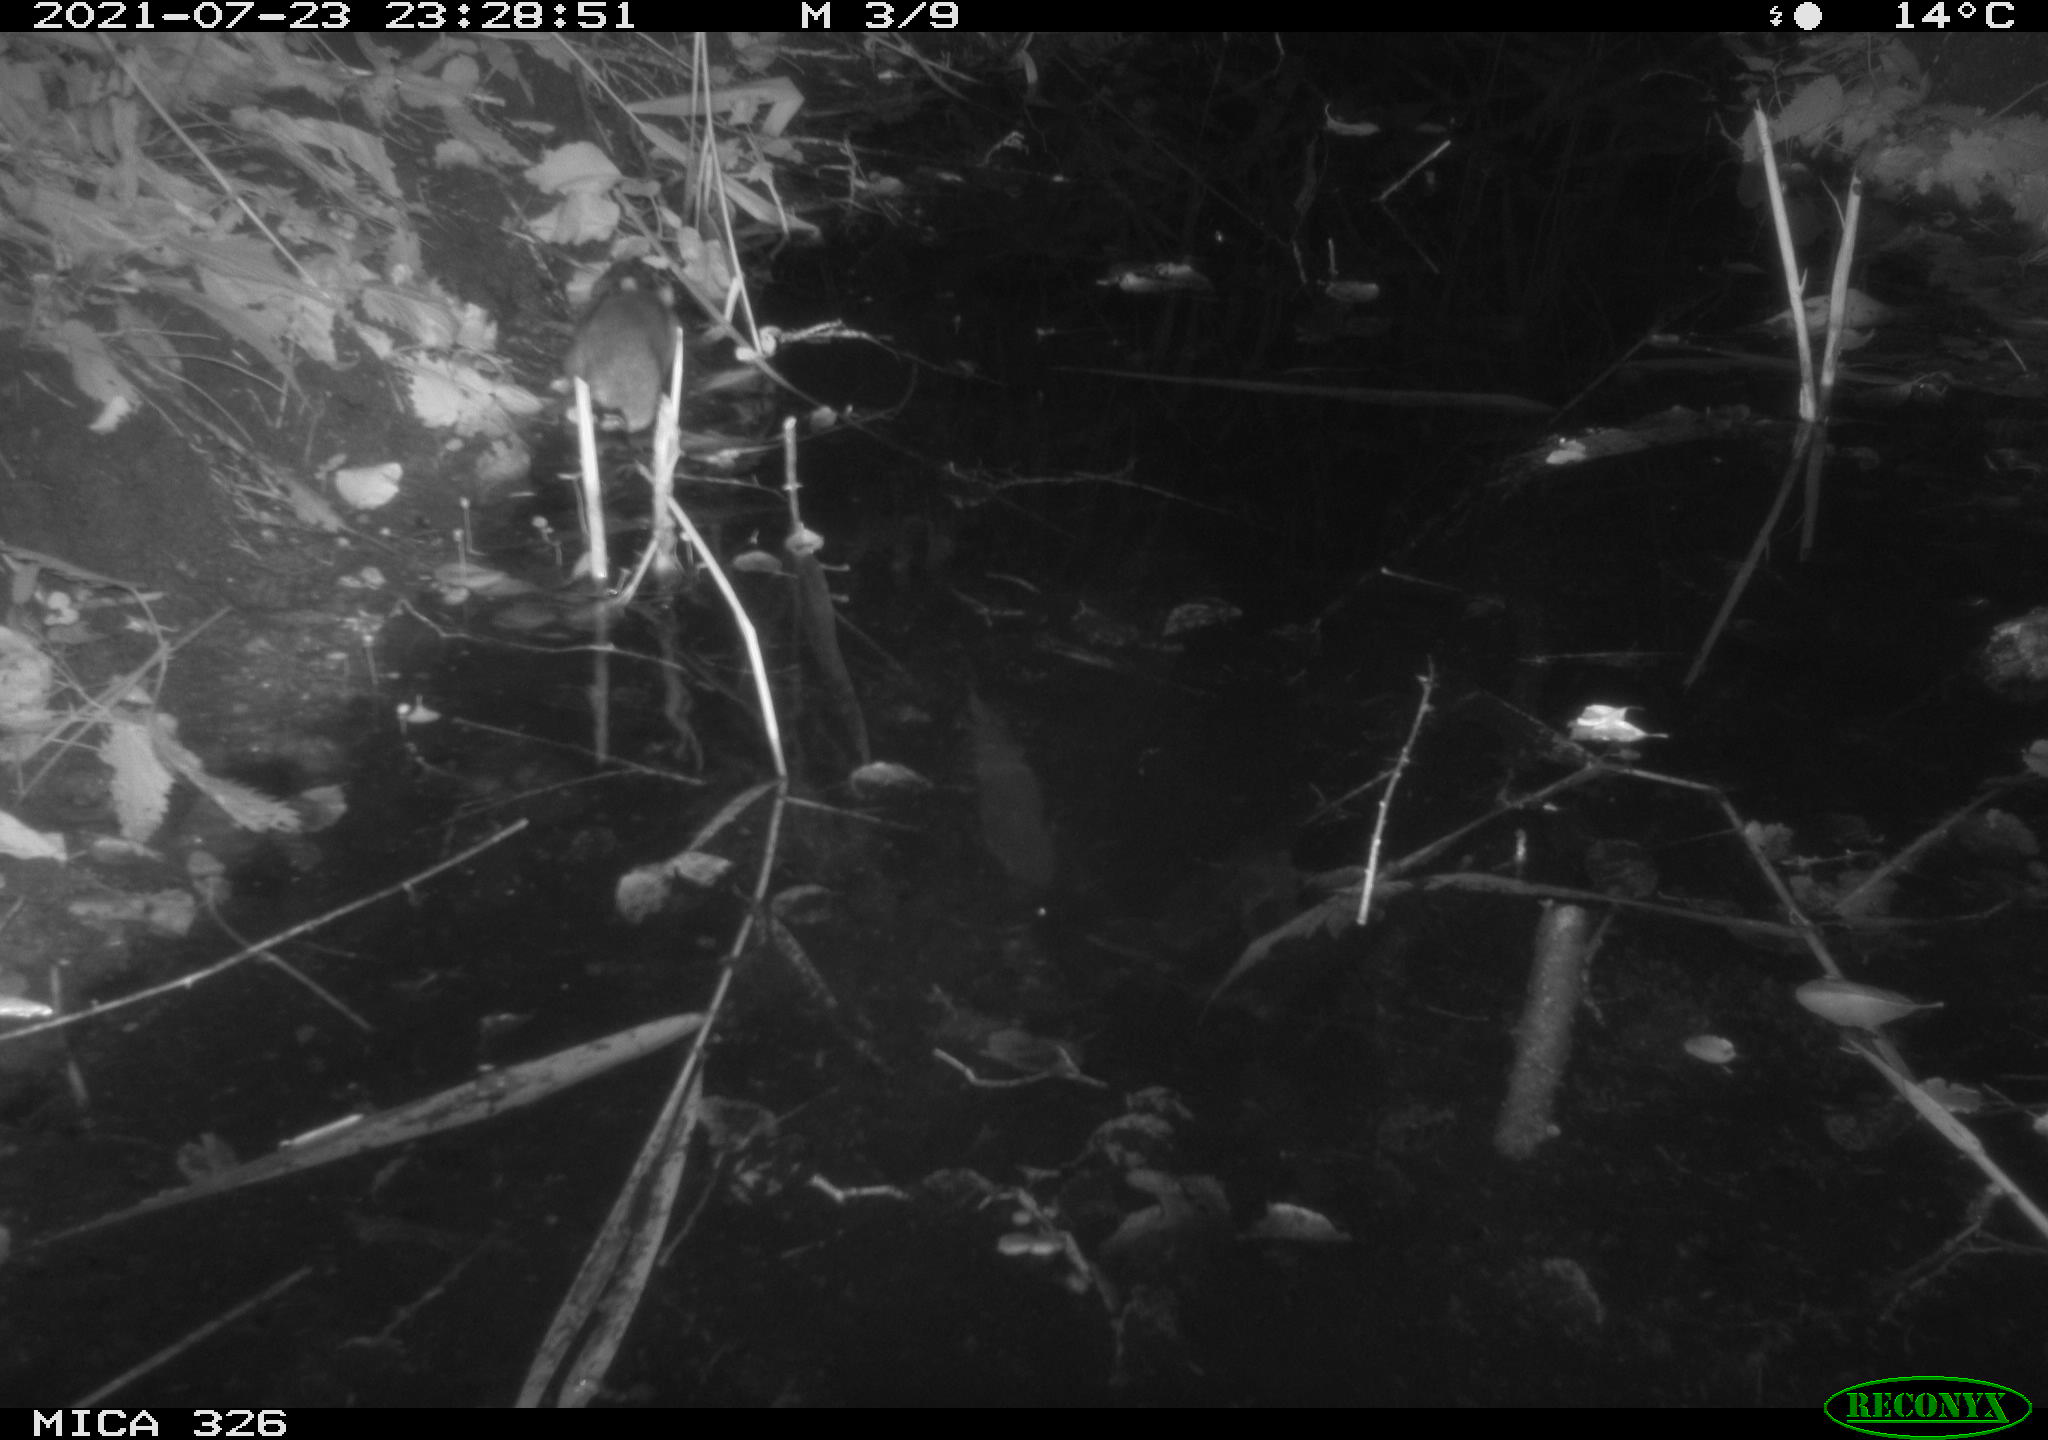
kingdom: Animalia
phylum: Chordata
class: Mammalia
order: Rodentia
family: Muridae
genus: Rattus
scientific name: Rattus norvegicus
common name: Brown rat
